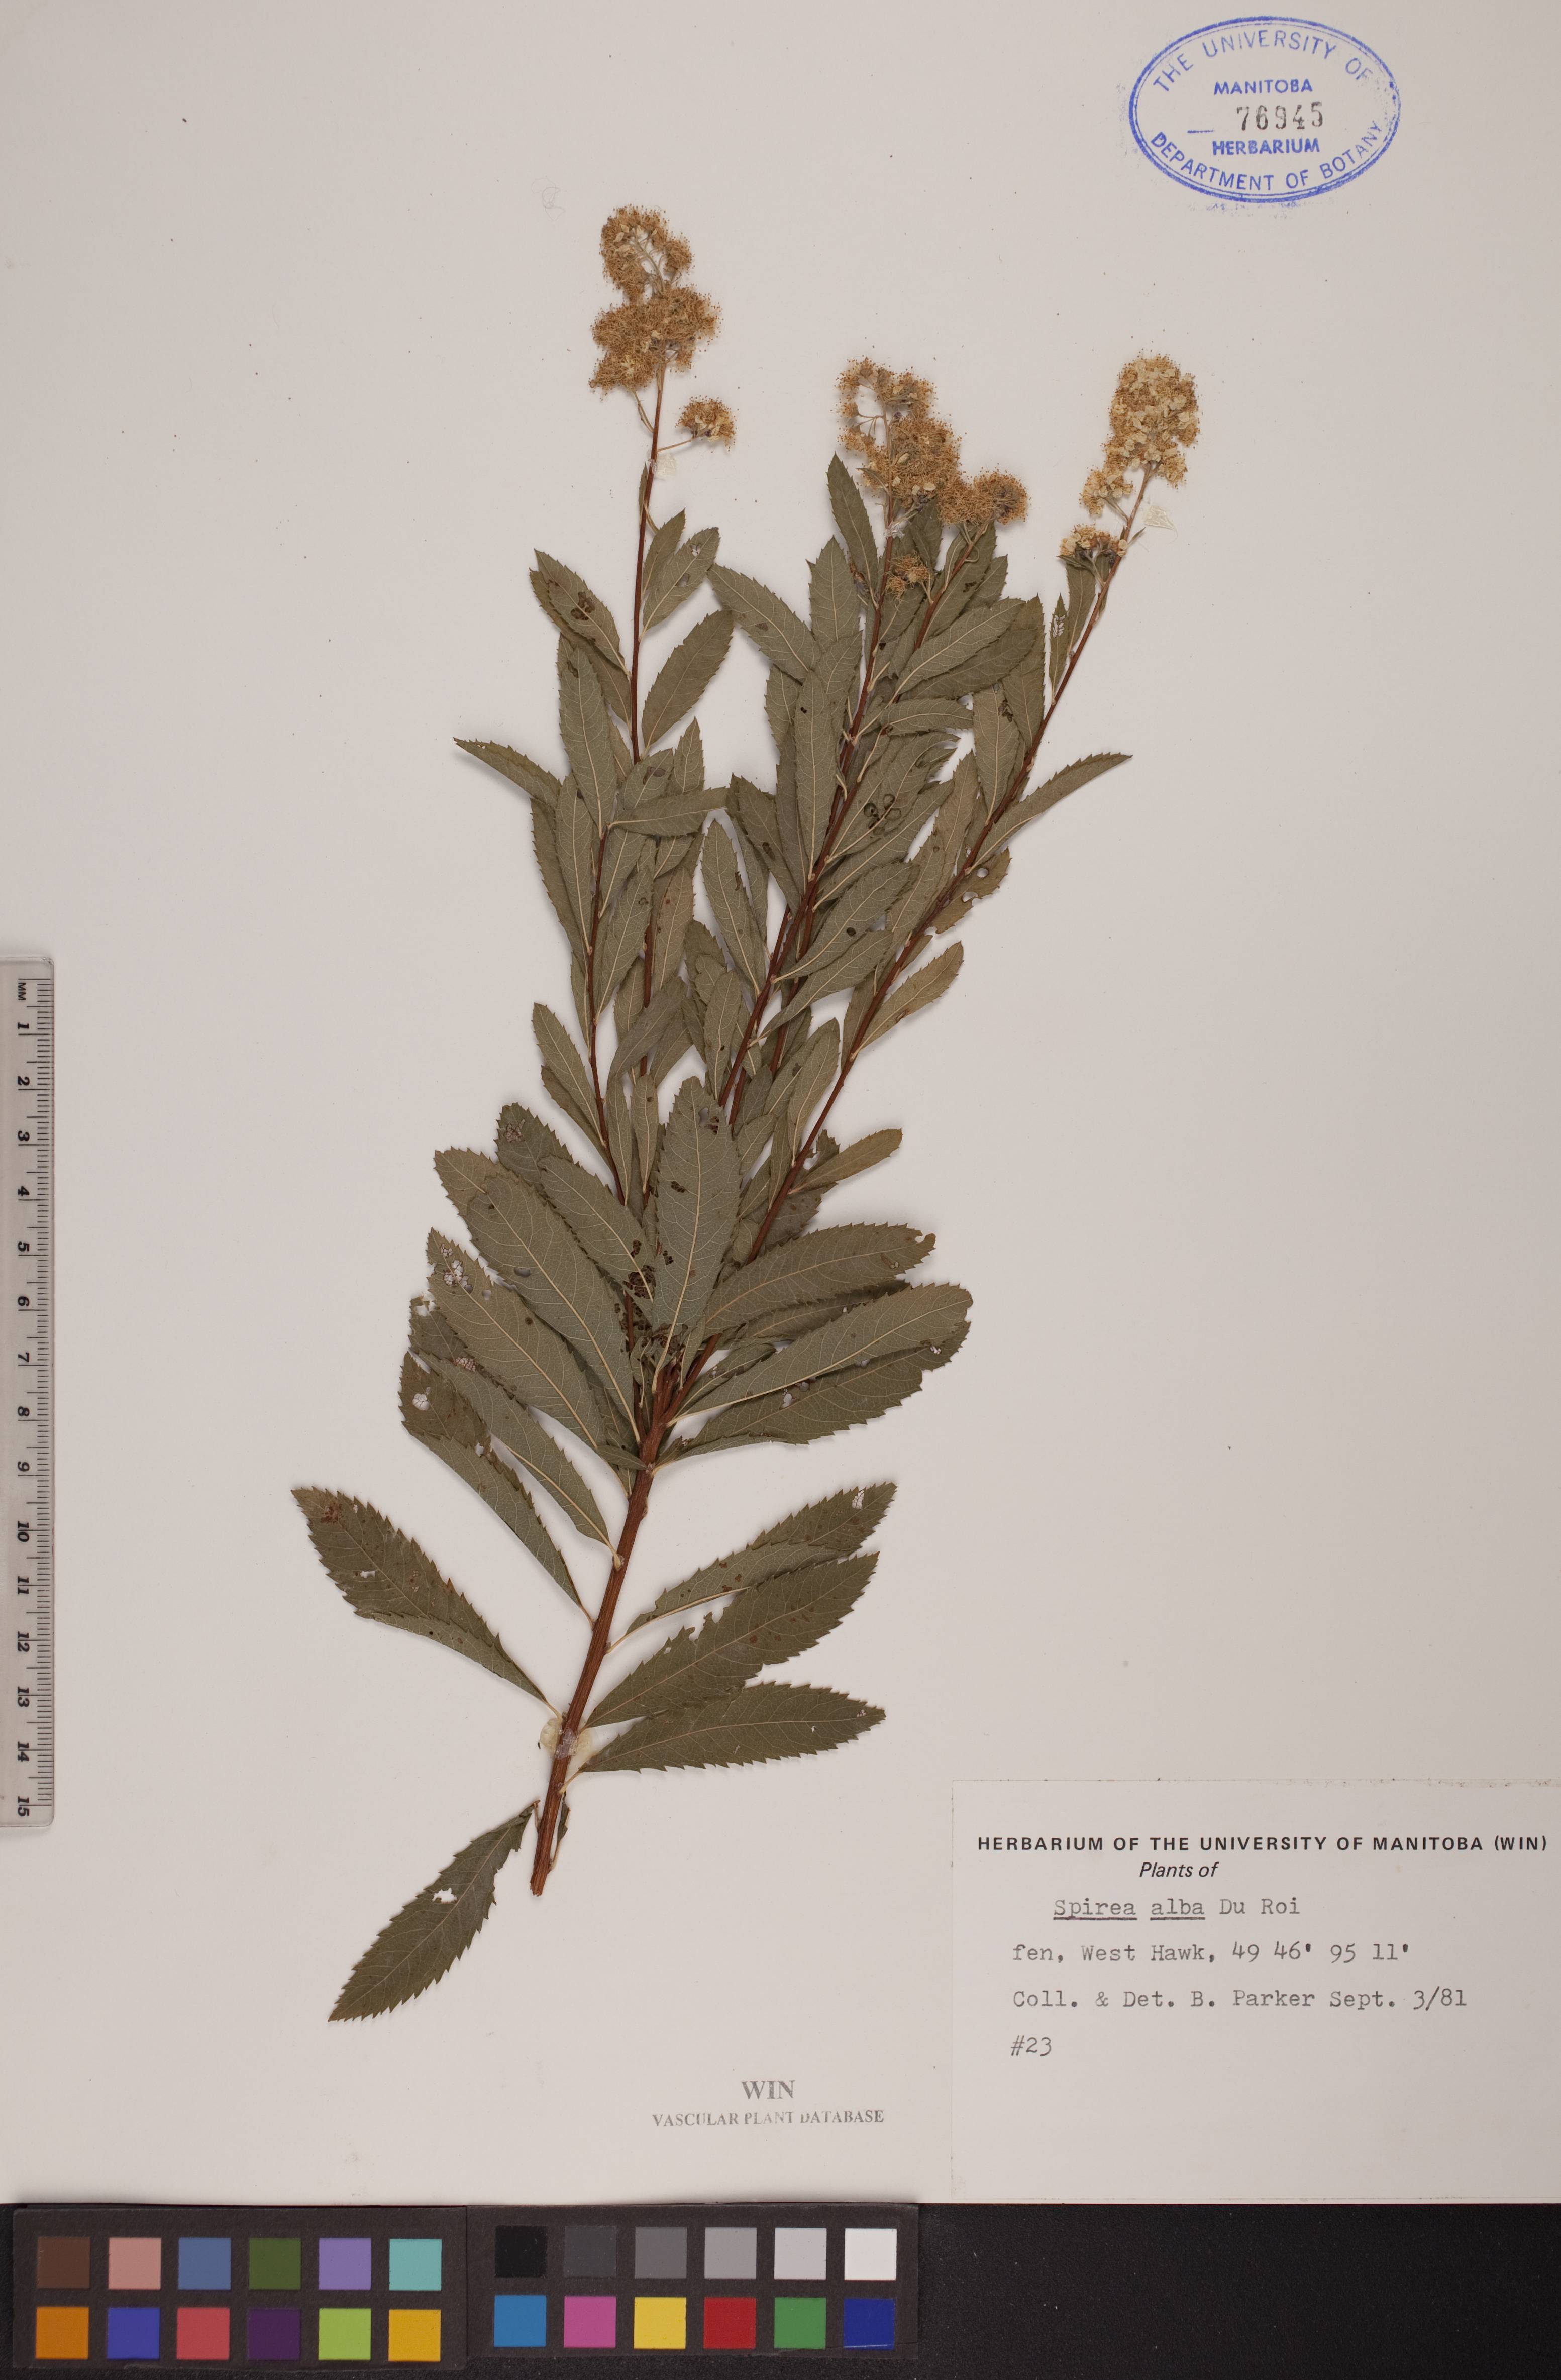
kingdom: Plantae
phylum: Tracheophyta
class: Magnoliopsida
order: Rosales
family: Rosaceae
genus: Spiraea
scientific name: Spiraea alba
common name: Pale bridewort
